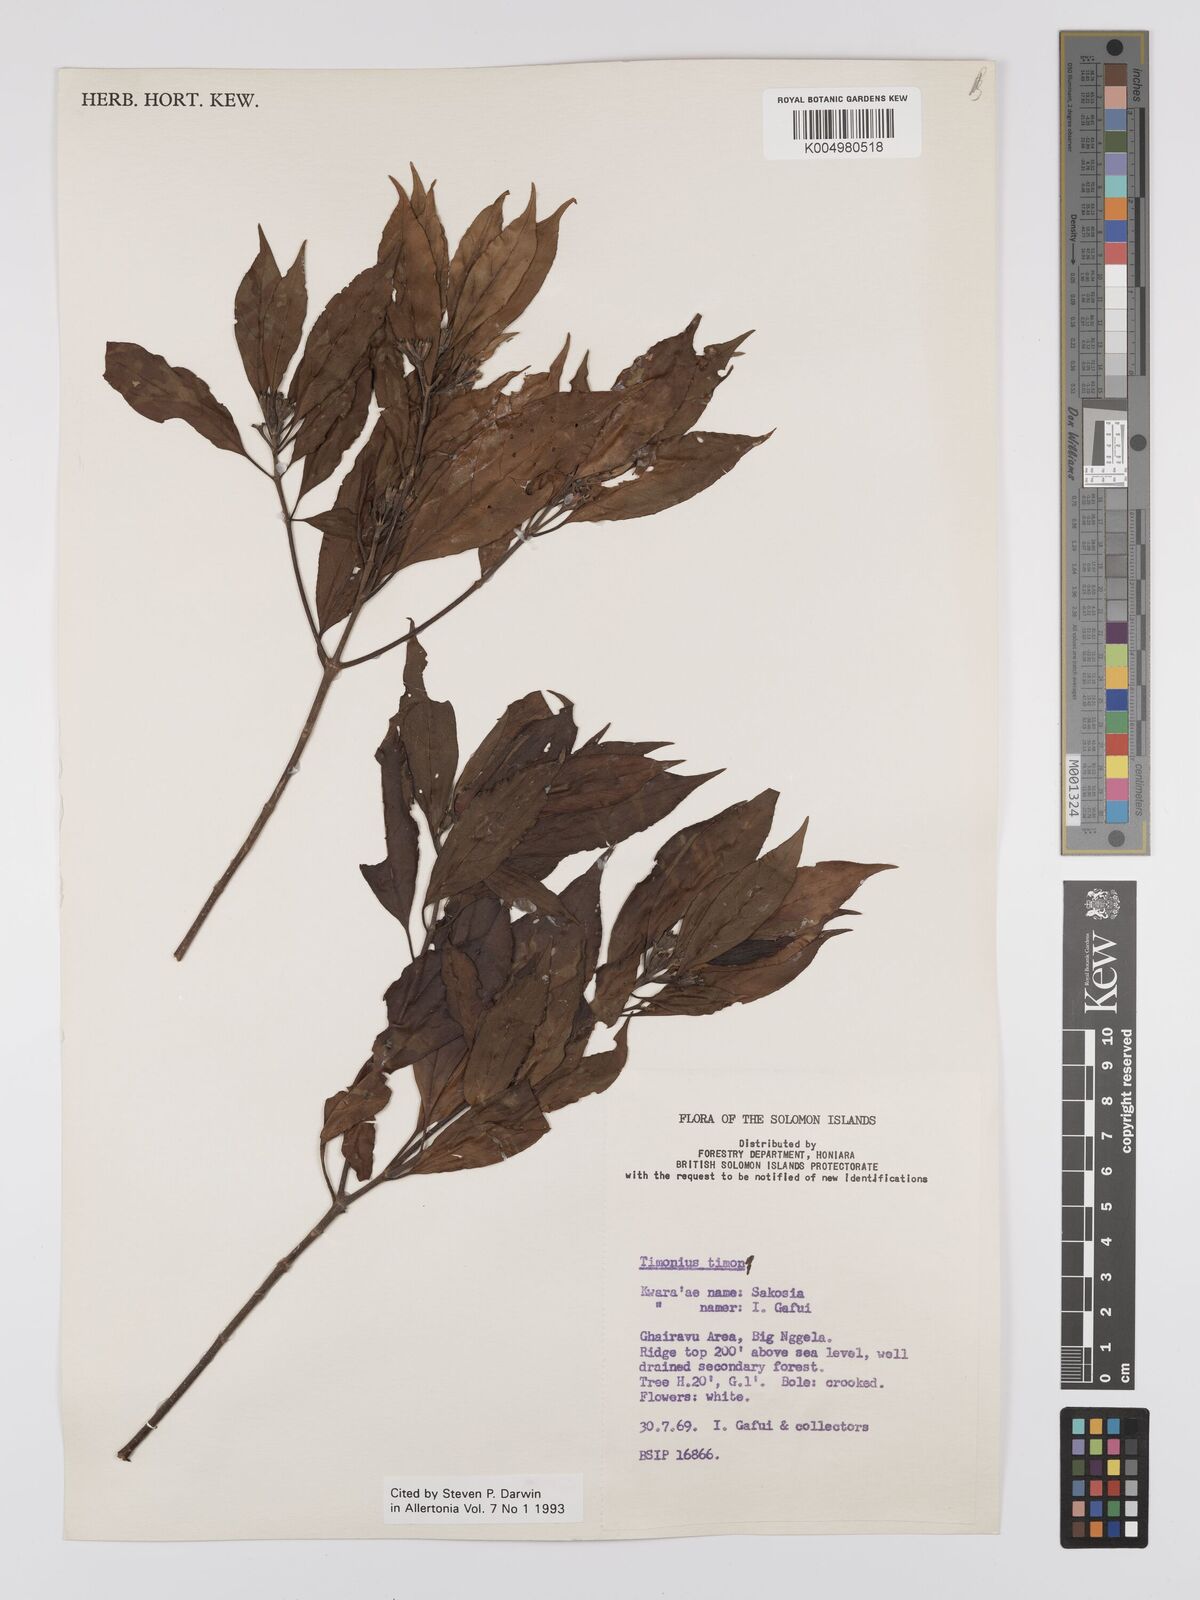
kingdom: Plantae
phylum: Tracheophyta
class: Magnoliopsida
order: Gentianales
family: Rubiaceae
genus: Timonius
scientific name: Timonius timon
